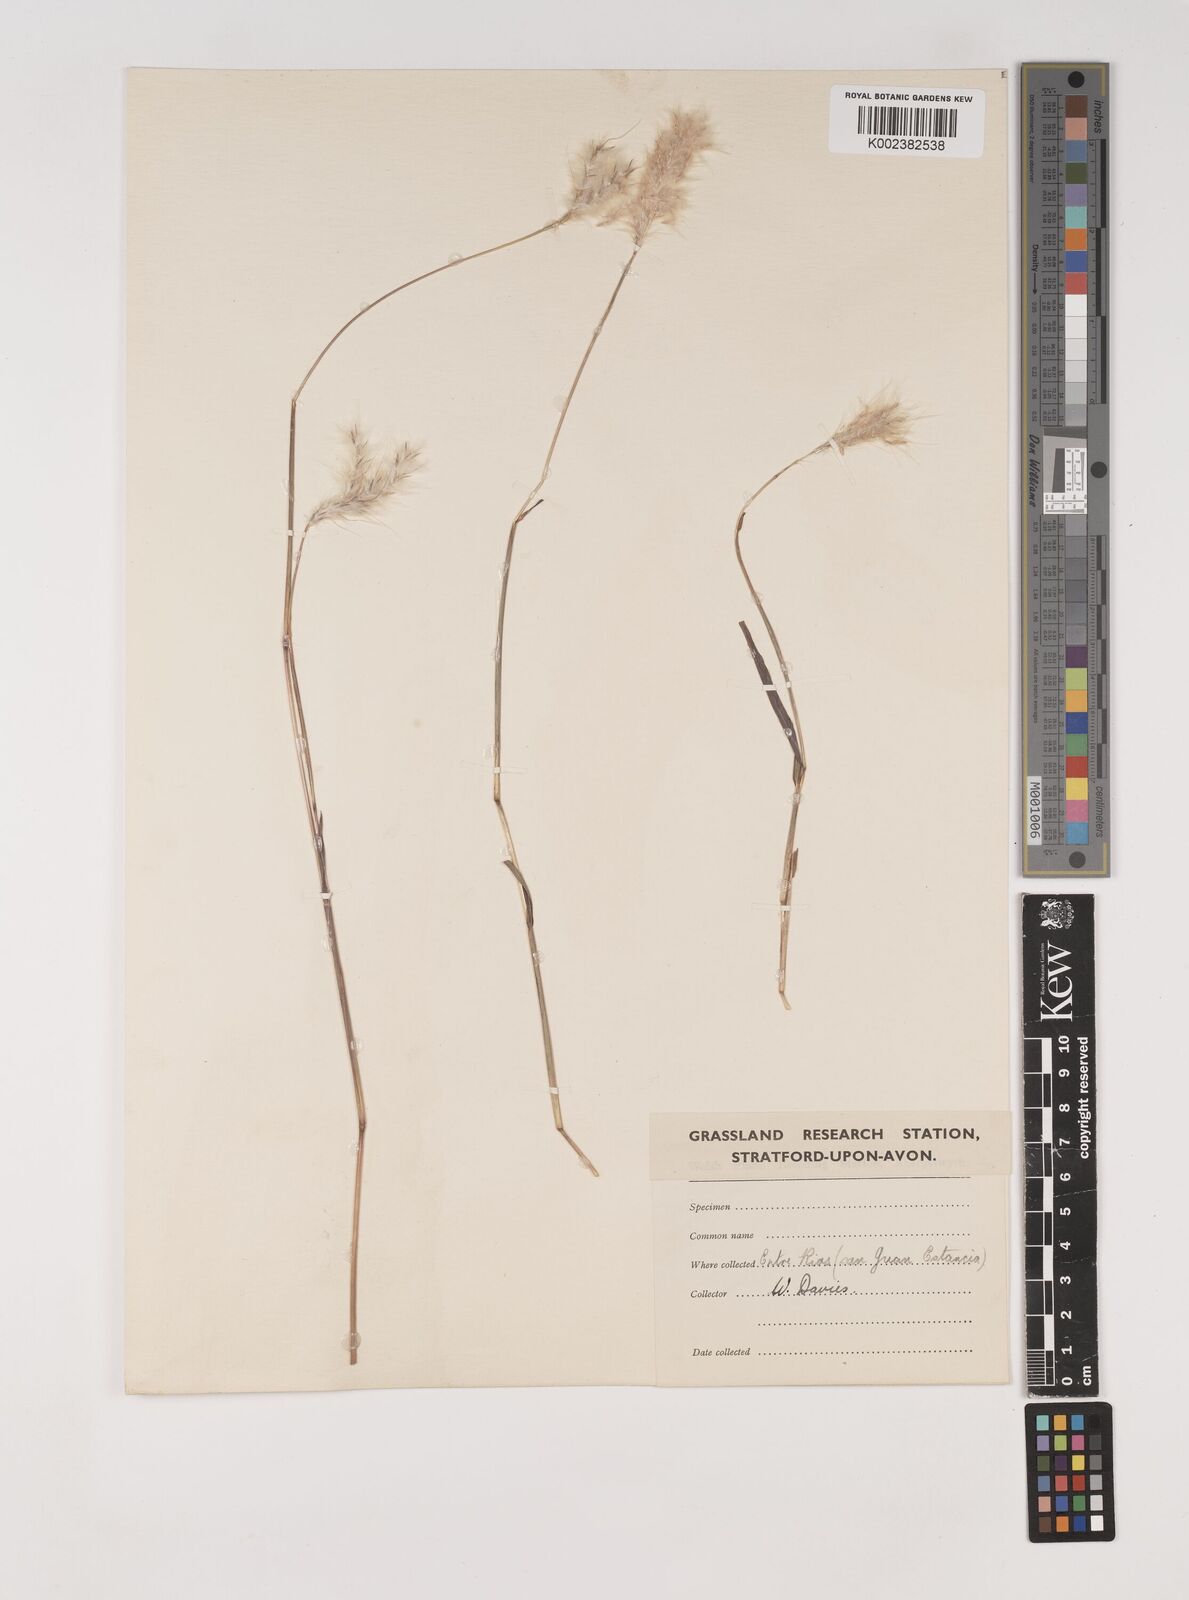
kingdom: Plantae
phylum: Tracheophyta
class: Liliopsida
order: Poales
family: Poaceae
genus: Bothriochloa
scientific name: Bothriochloa springfieldii
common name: Springfield bluestem
